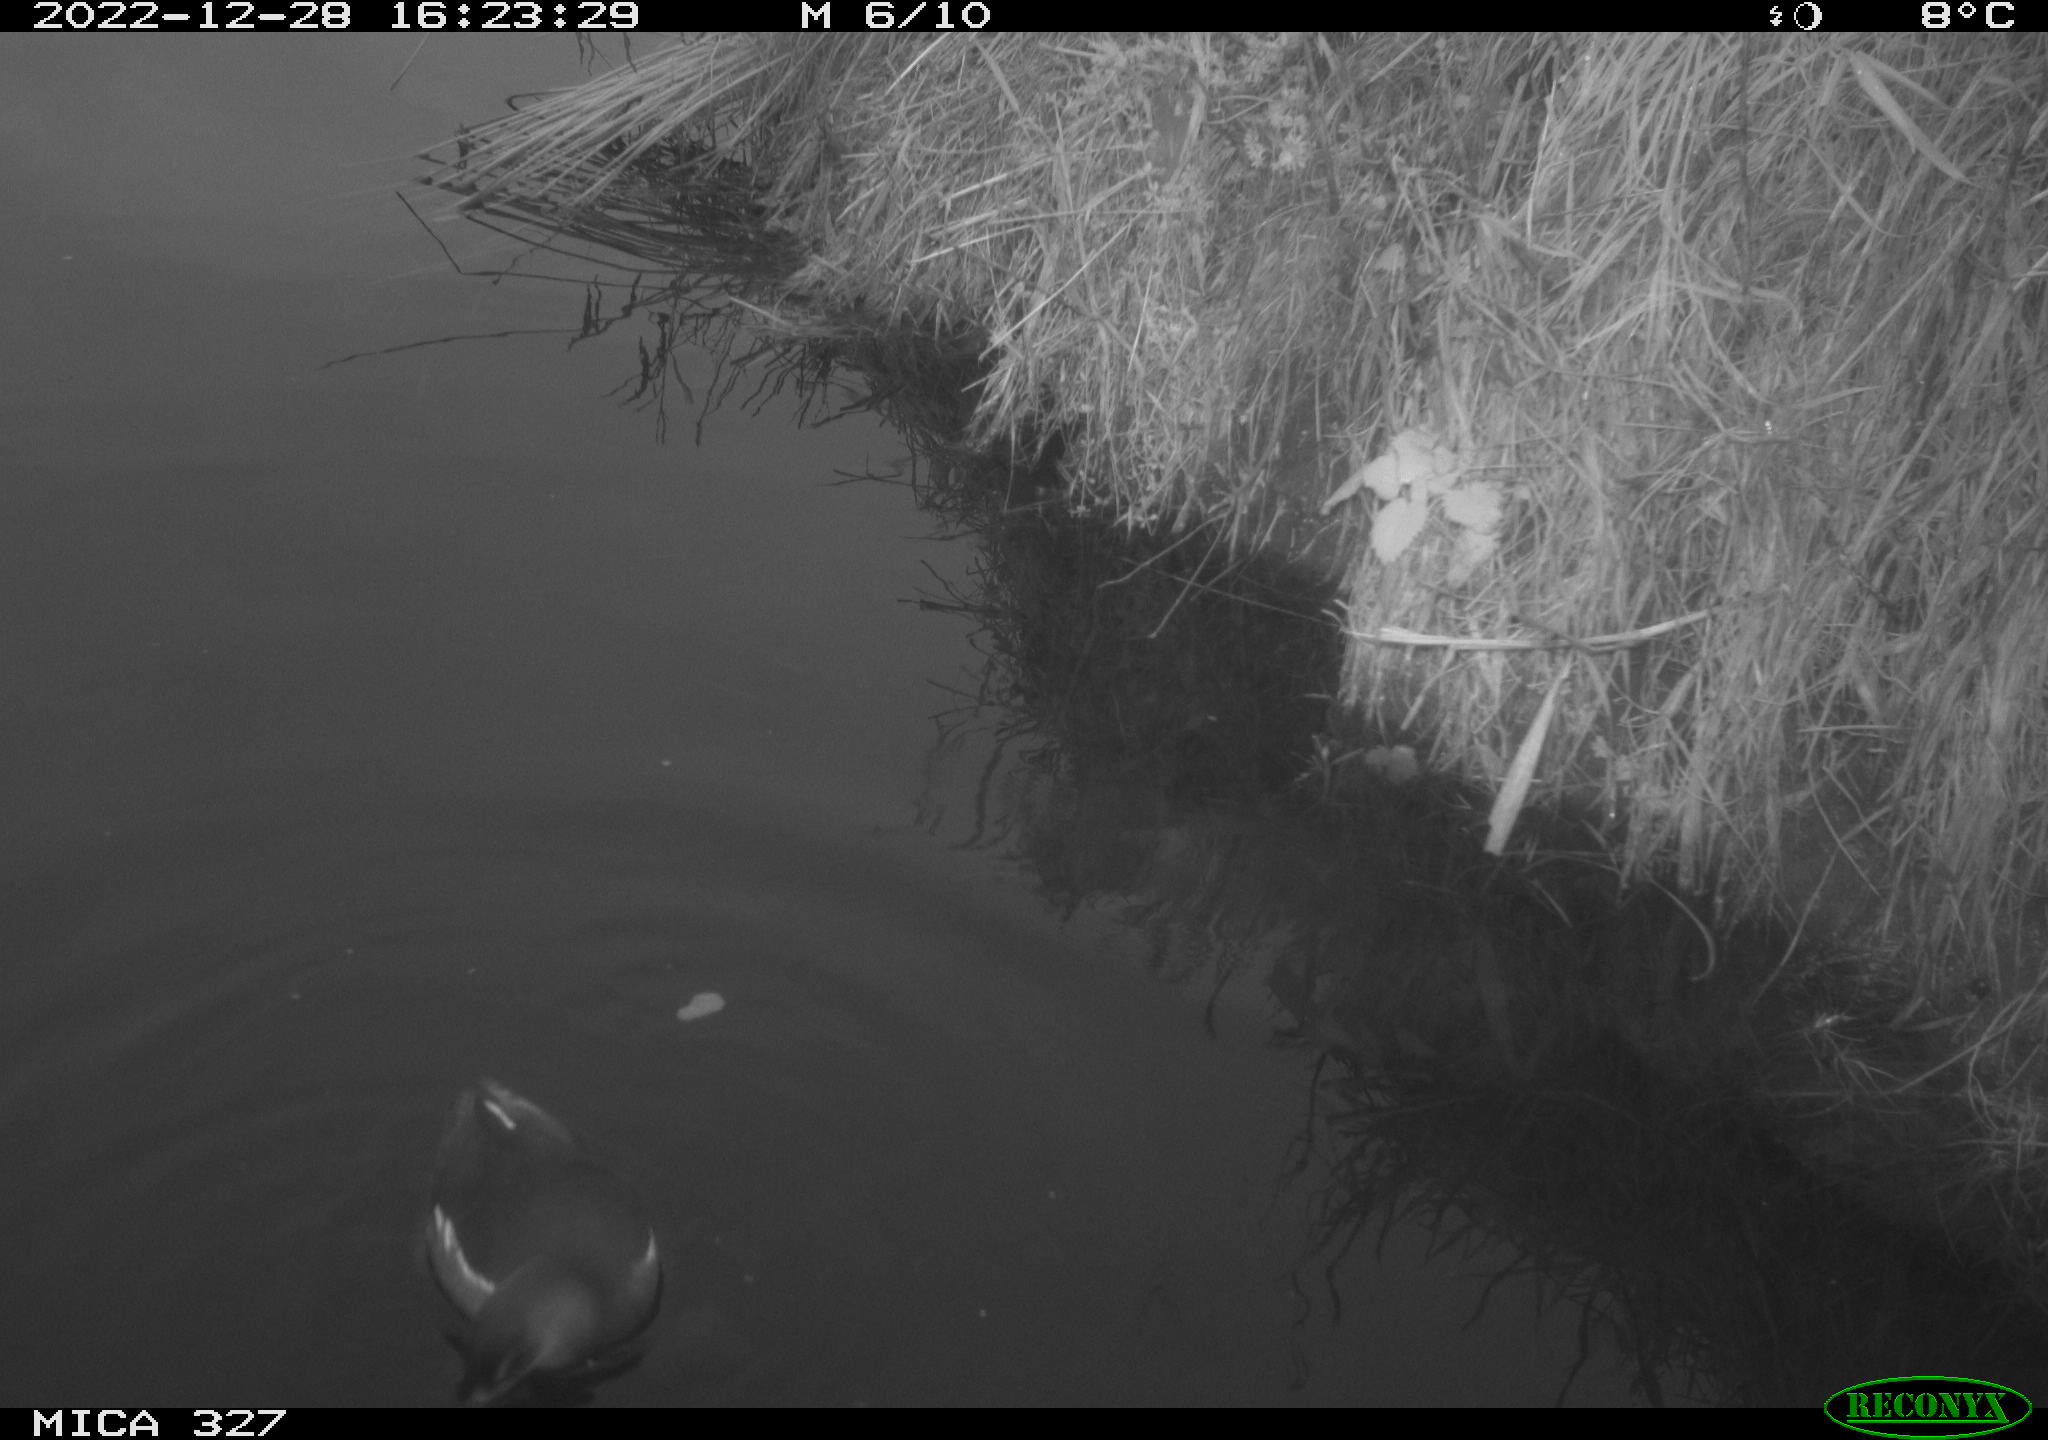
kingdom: Animalia
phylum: Chordata
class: Aves
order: Gruiformes
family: Rallidae
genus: Gallinula
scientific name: Gallinula chloropus
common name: Common moorhen
